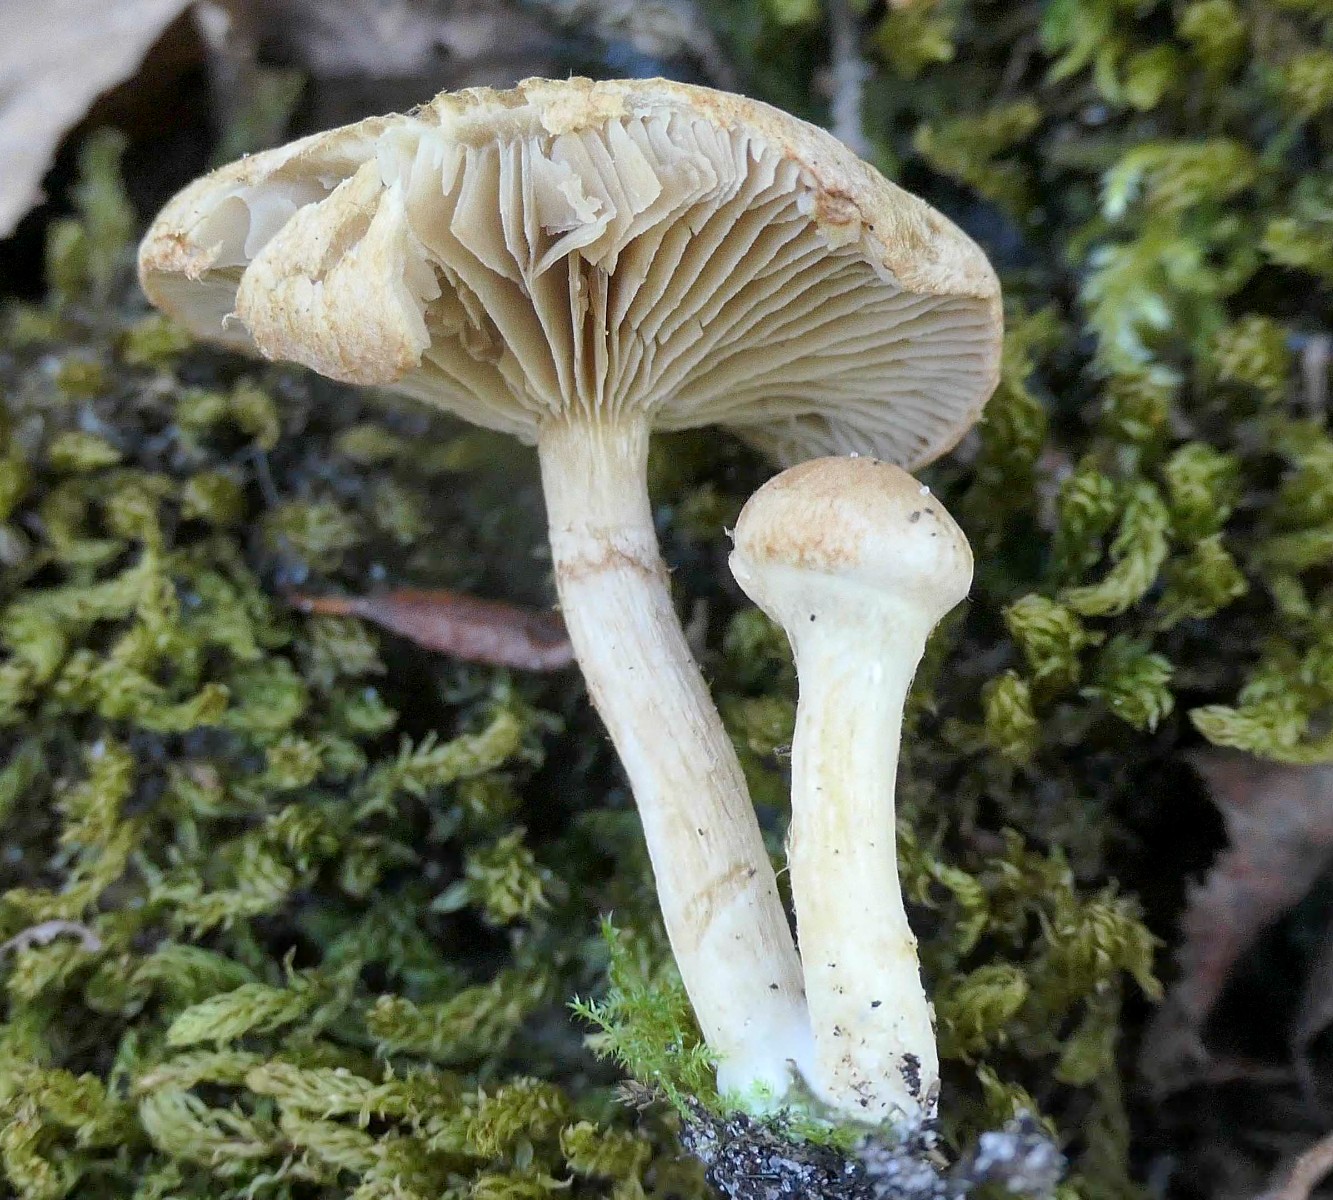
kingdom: Fungi
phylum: Basidiomycota
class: Agaricomycetes
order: Agaricales
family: Inocybaceae
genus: Mallocybe
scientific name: Mallocybe
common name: Trævlhat
